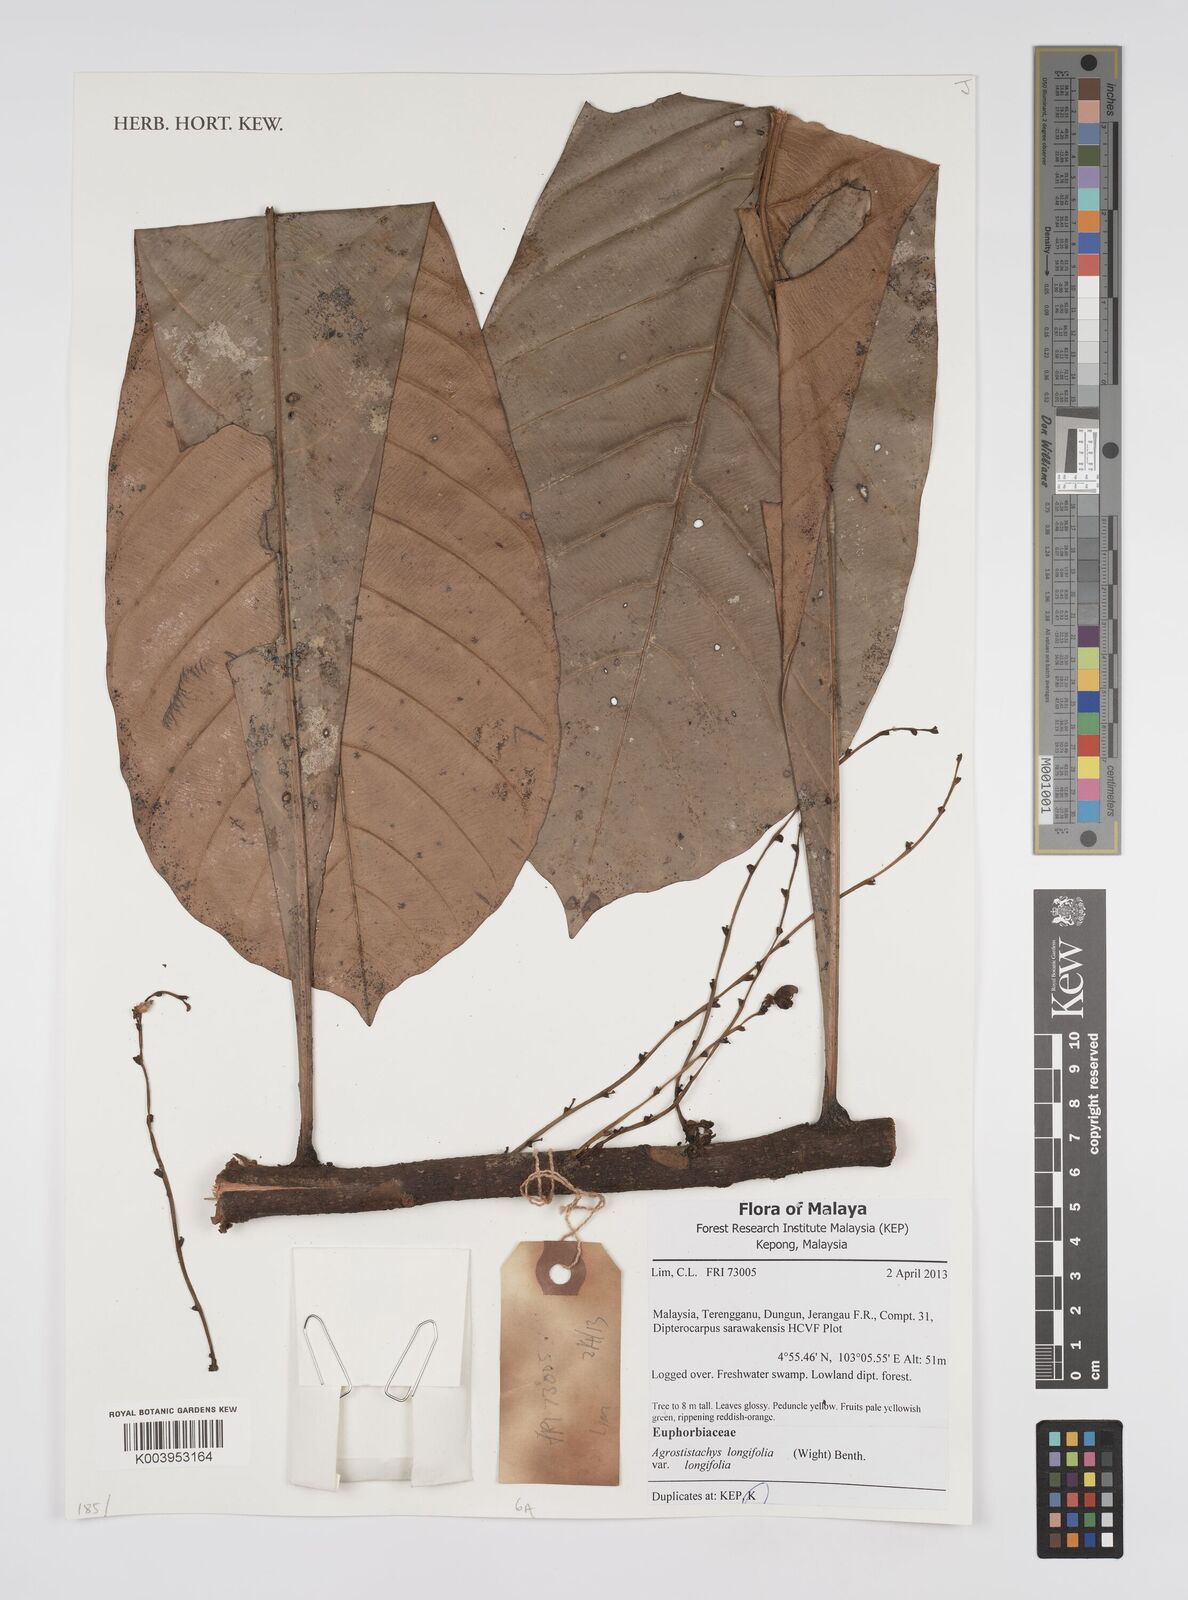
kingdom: Plantae
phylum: Tracheophyta
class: Magnoliopsida
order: Malpighiales
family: Euphorbiaceae
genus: Agrostistachys
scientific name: Agrostistachys borneensis
